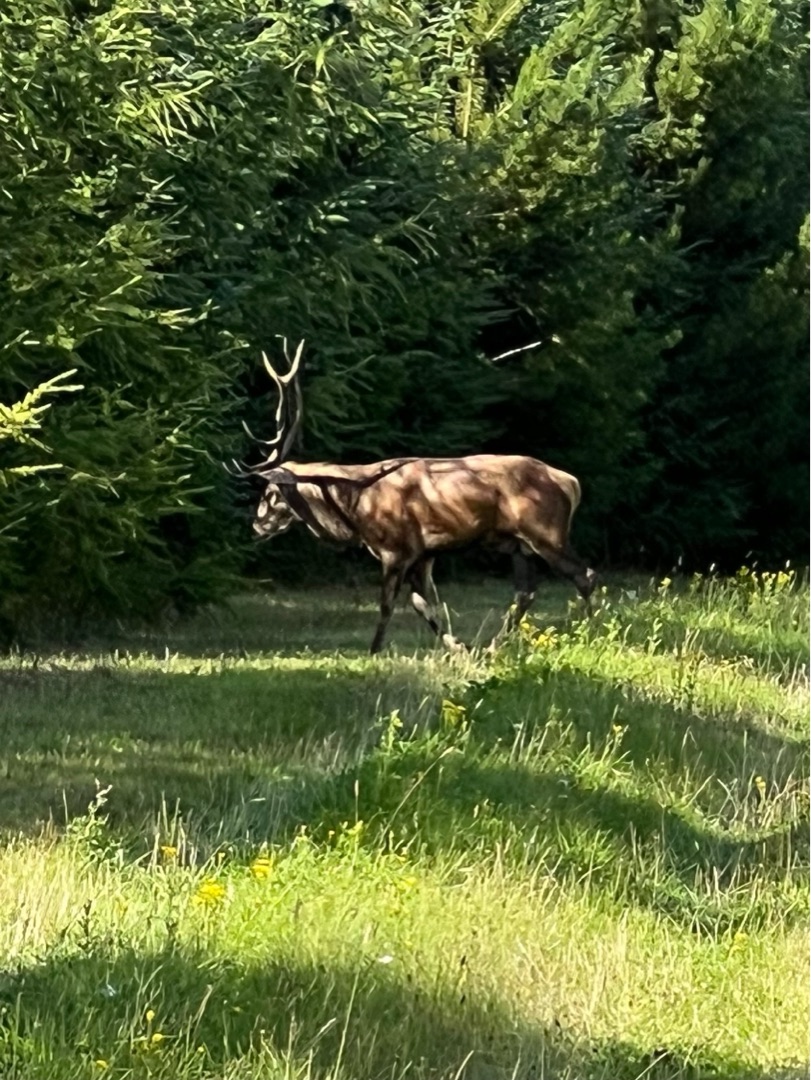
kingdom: Animalia
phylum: Chordata
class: Mammalia
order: Artiodactyla
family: Cervidae
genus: Cervus
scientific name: Cervus elaphus
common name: Krondyr
